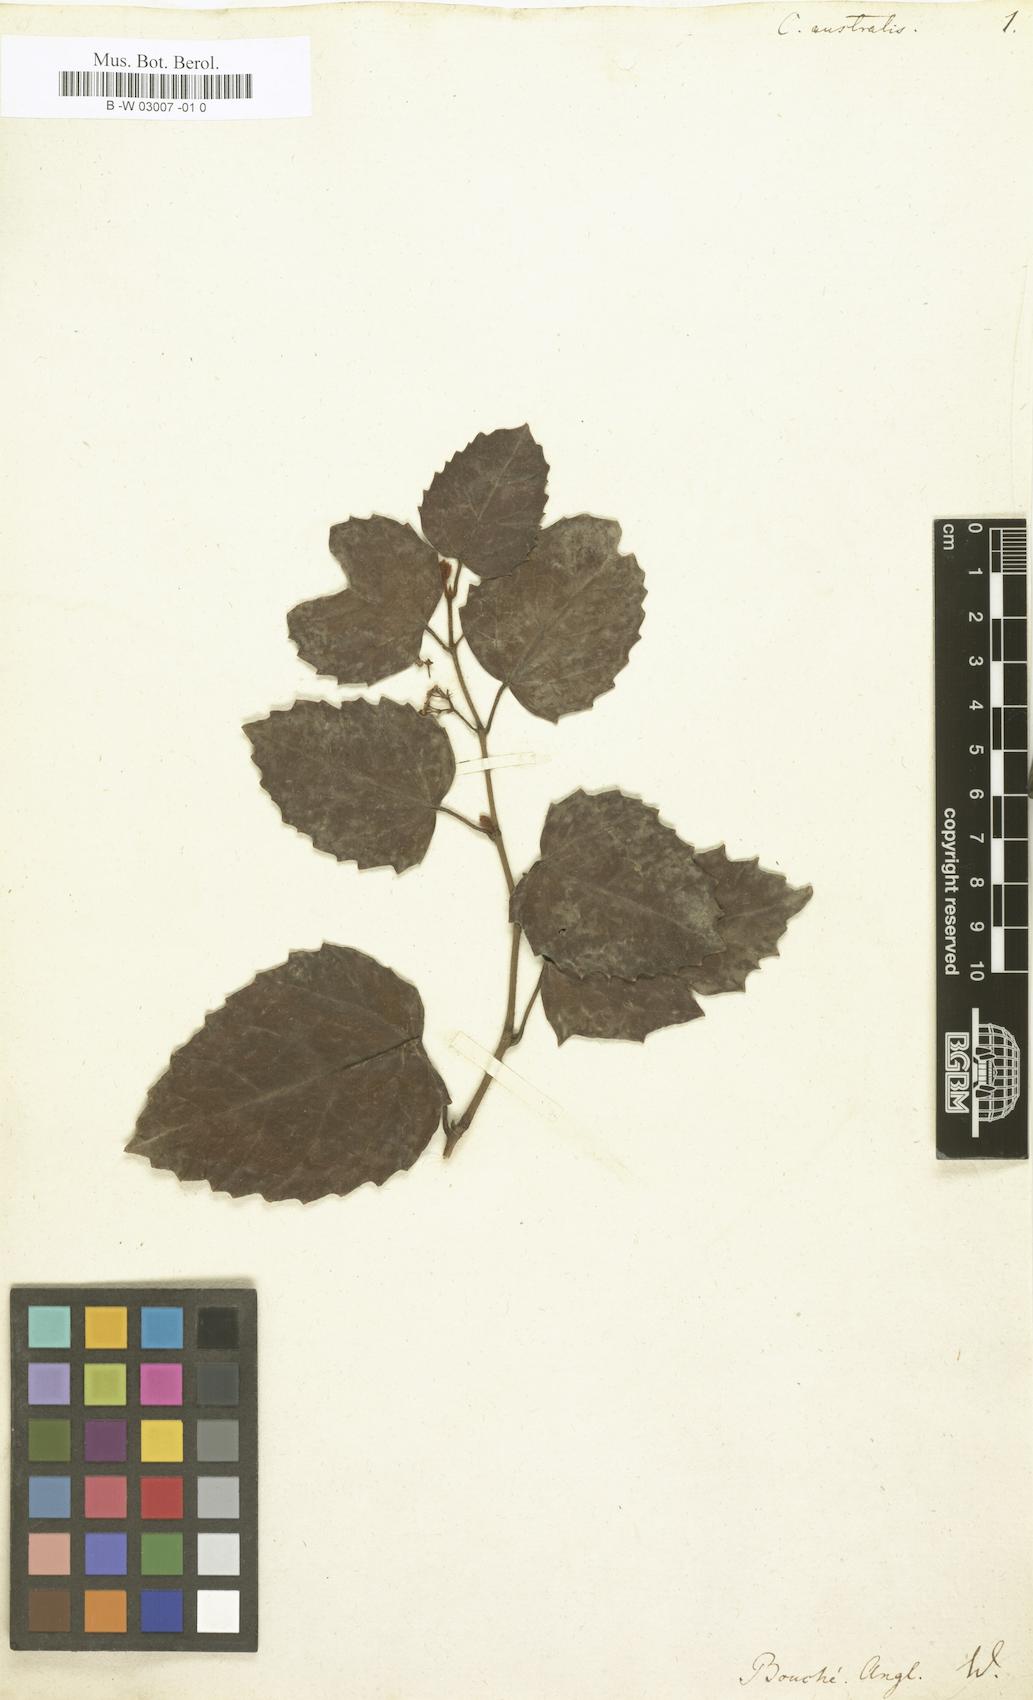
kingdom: Plantae
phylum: Tracheophyta
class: Magnoliopsida
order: Vitales
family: Vitaceae
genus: Cissus
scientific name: Cissus australis
